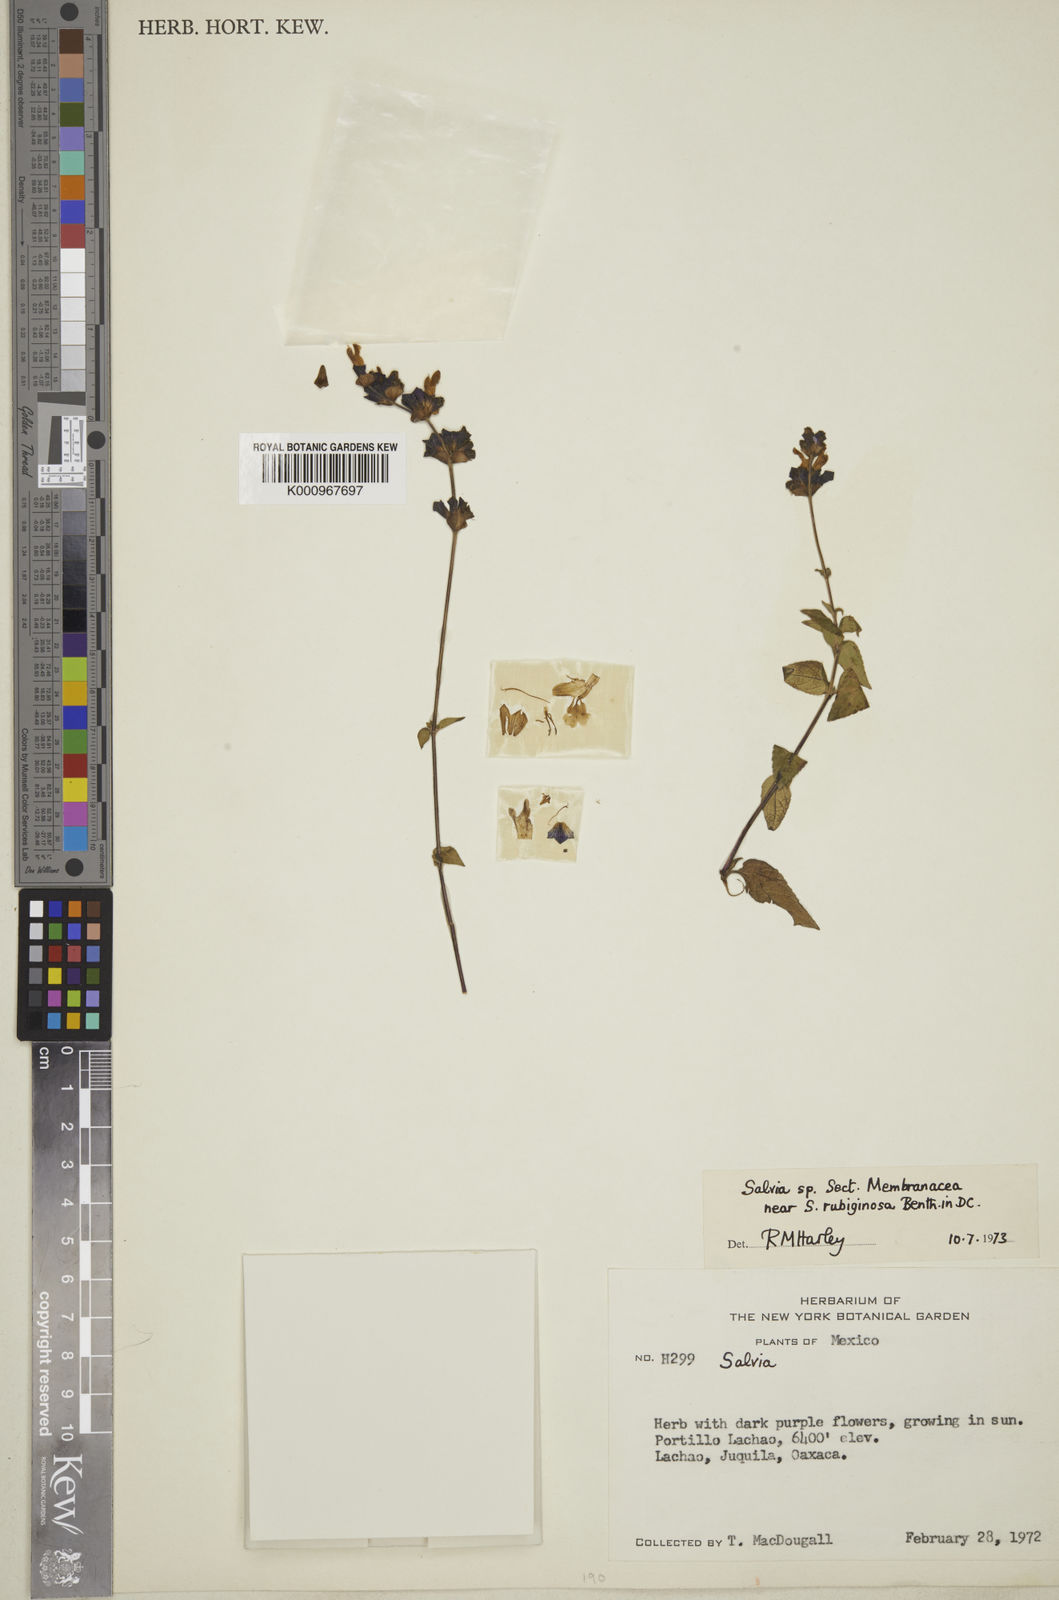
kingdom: Plantae
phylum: Tracheophyta
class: Magnoliopsida
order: Lamiales
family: Lamiaceae
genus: Salvia
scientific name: Salvia mocinoi
